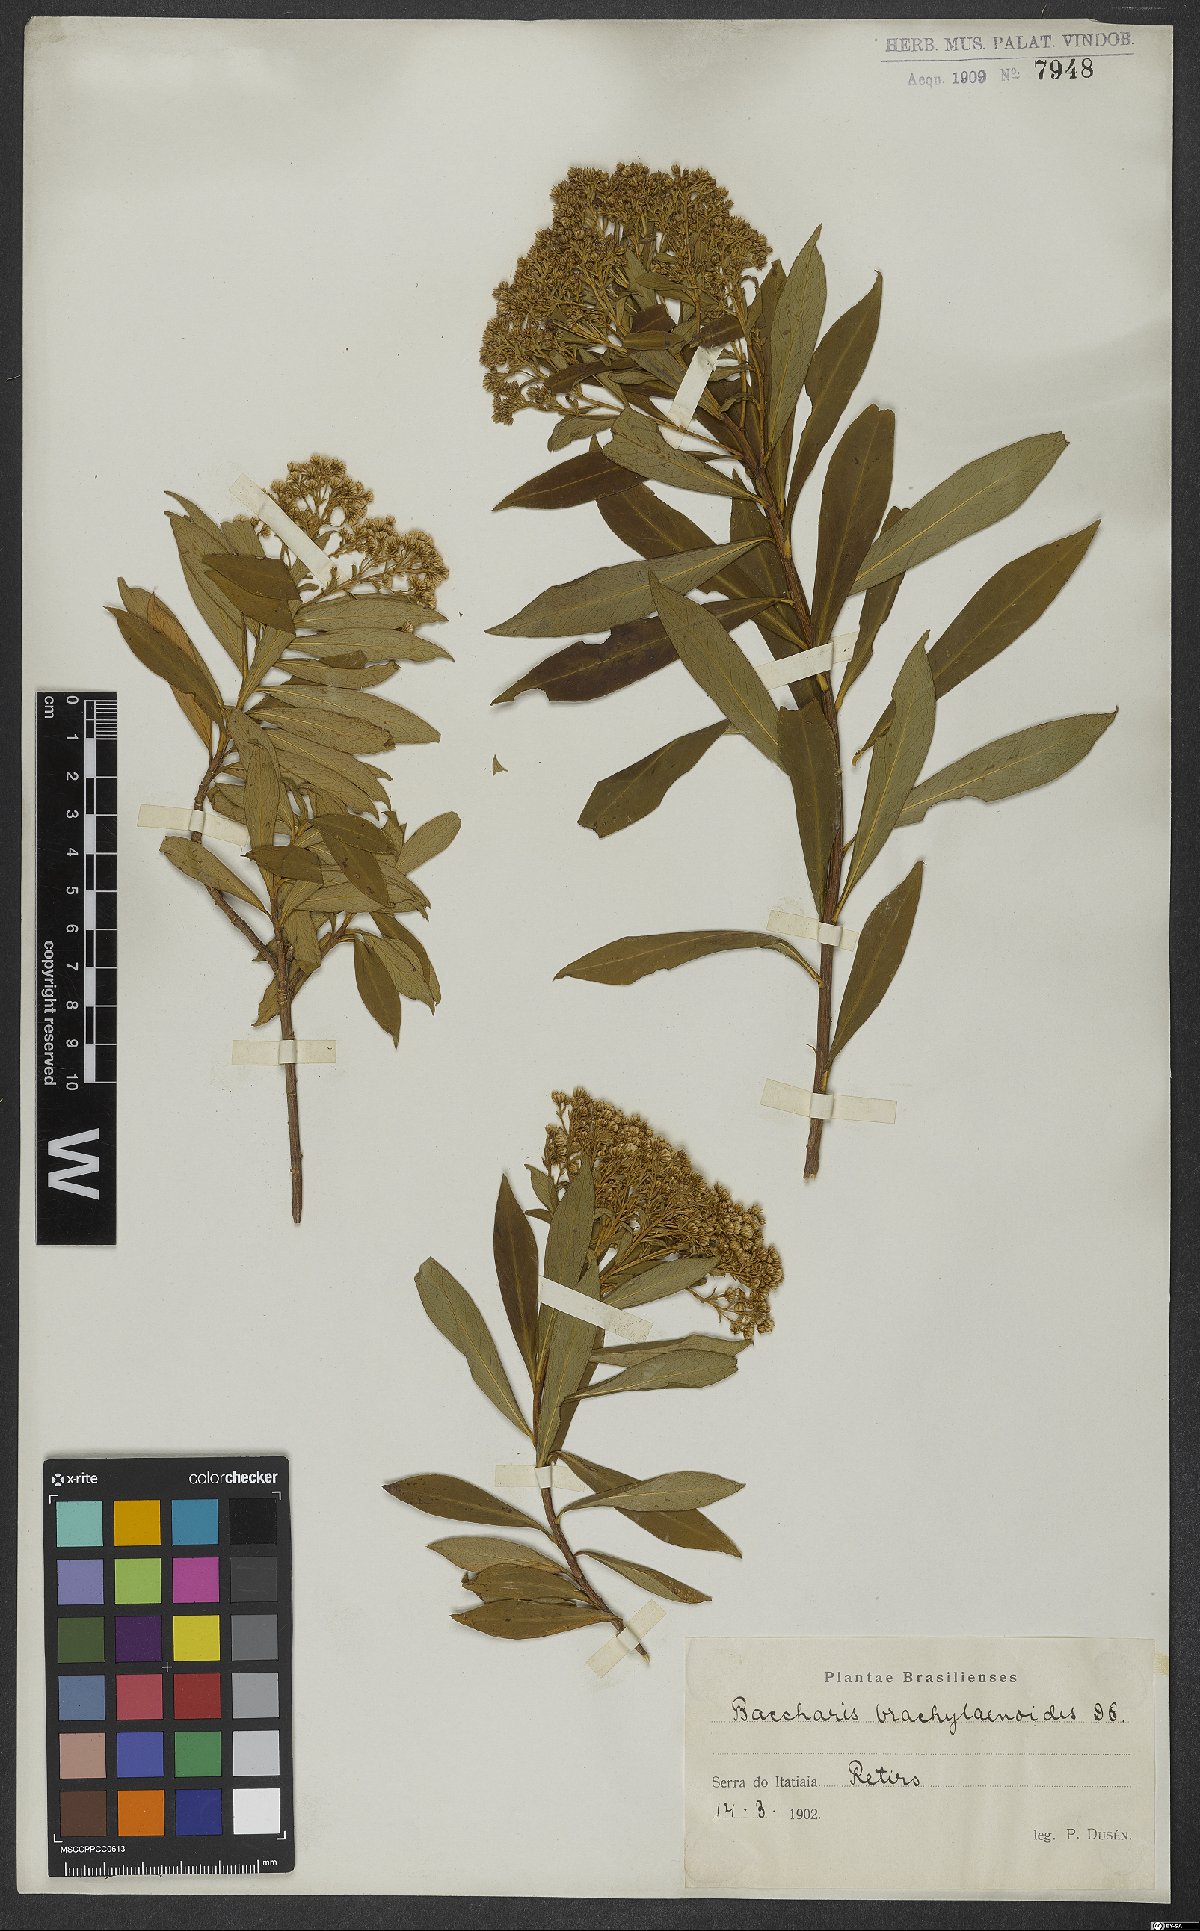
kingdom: Plantae
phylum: Tracheophyta
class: Magnoliopsida
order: Asterales
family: Asteraceae
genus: Baccharis
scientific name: Baccharis oblongifolia
